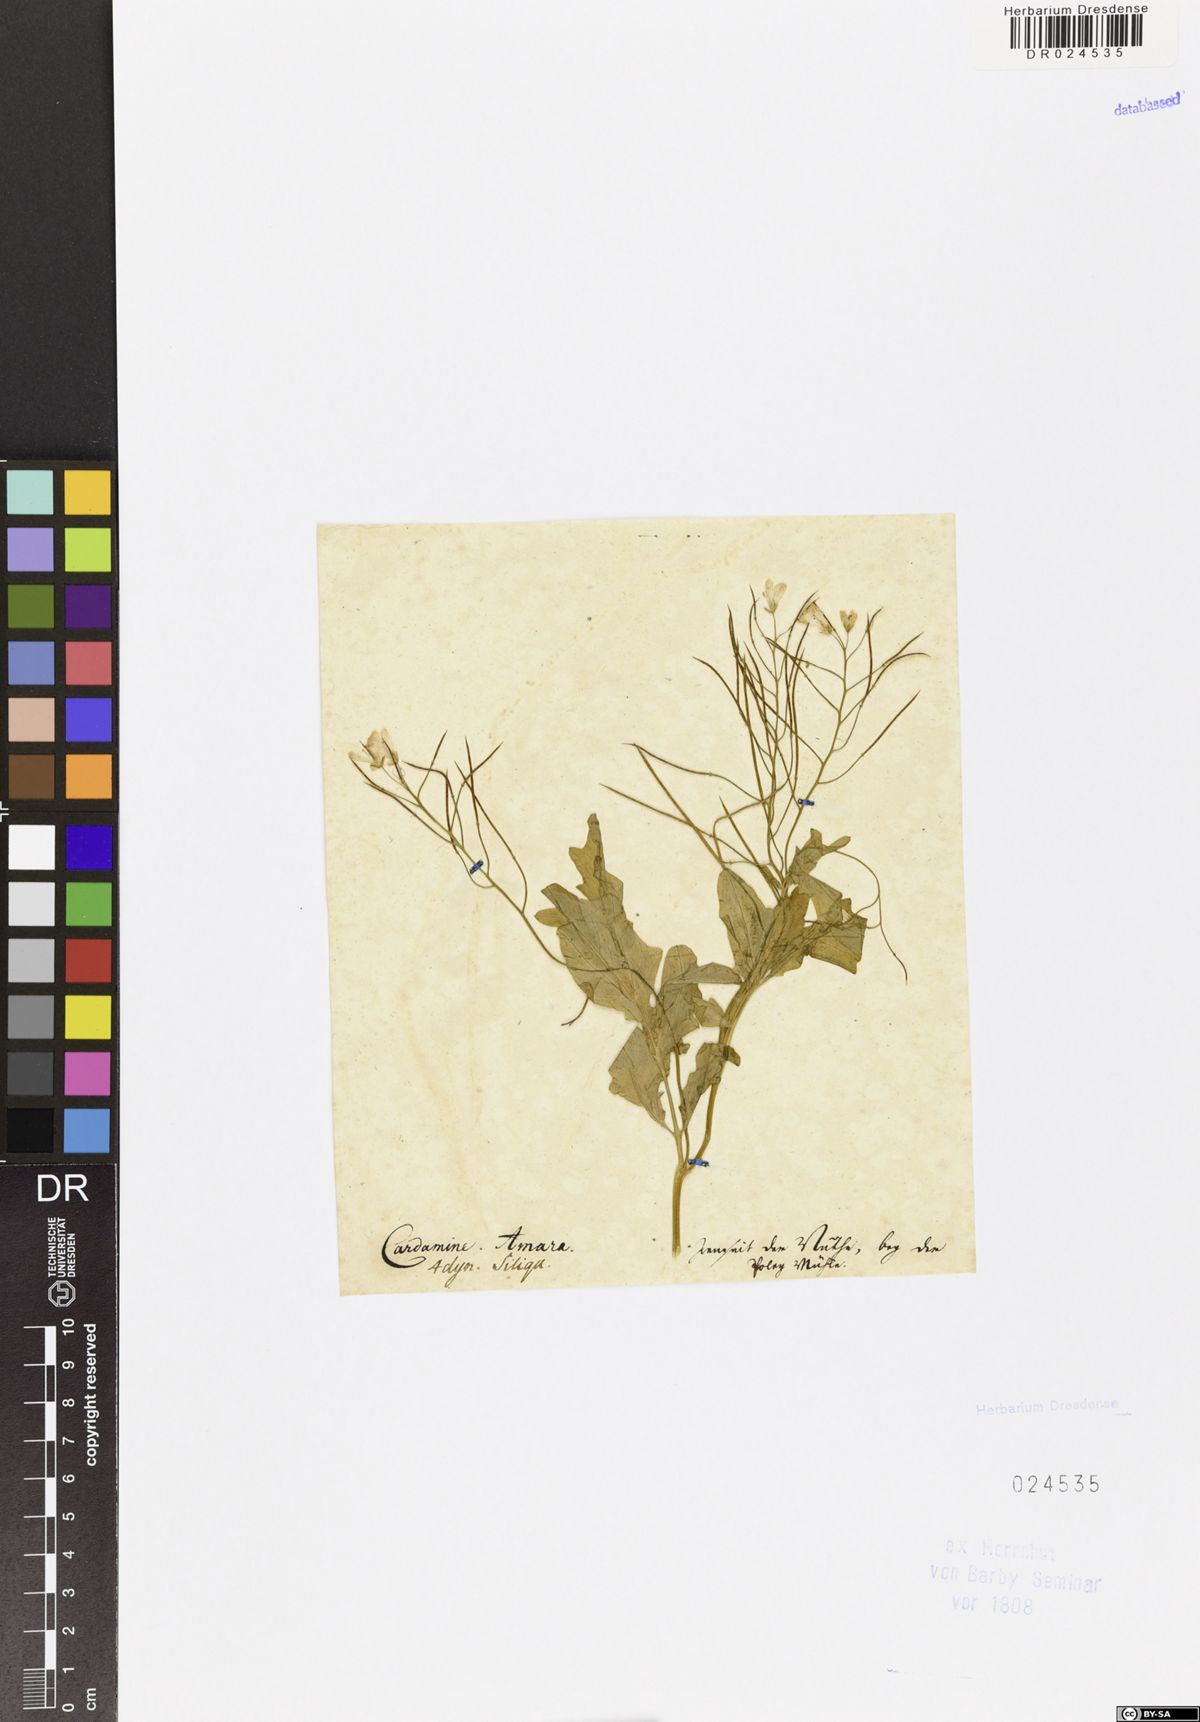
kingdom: Plantae
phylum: Tracheophyta
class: Magnoliopsida
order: Brassicales
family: Brassicaceae
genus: Cardamine
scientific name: Cardamine amara
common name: Large bitter-cress
